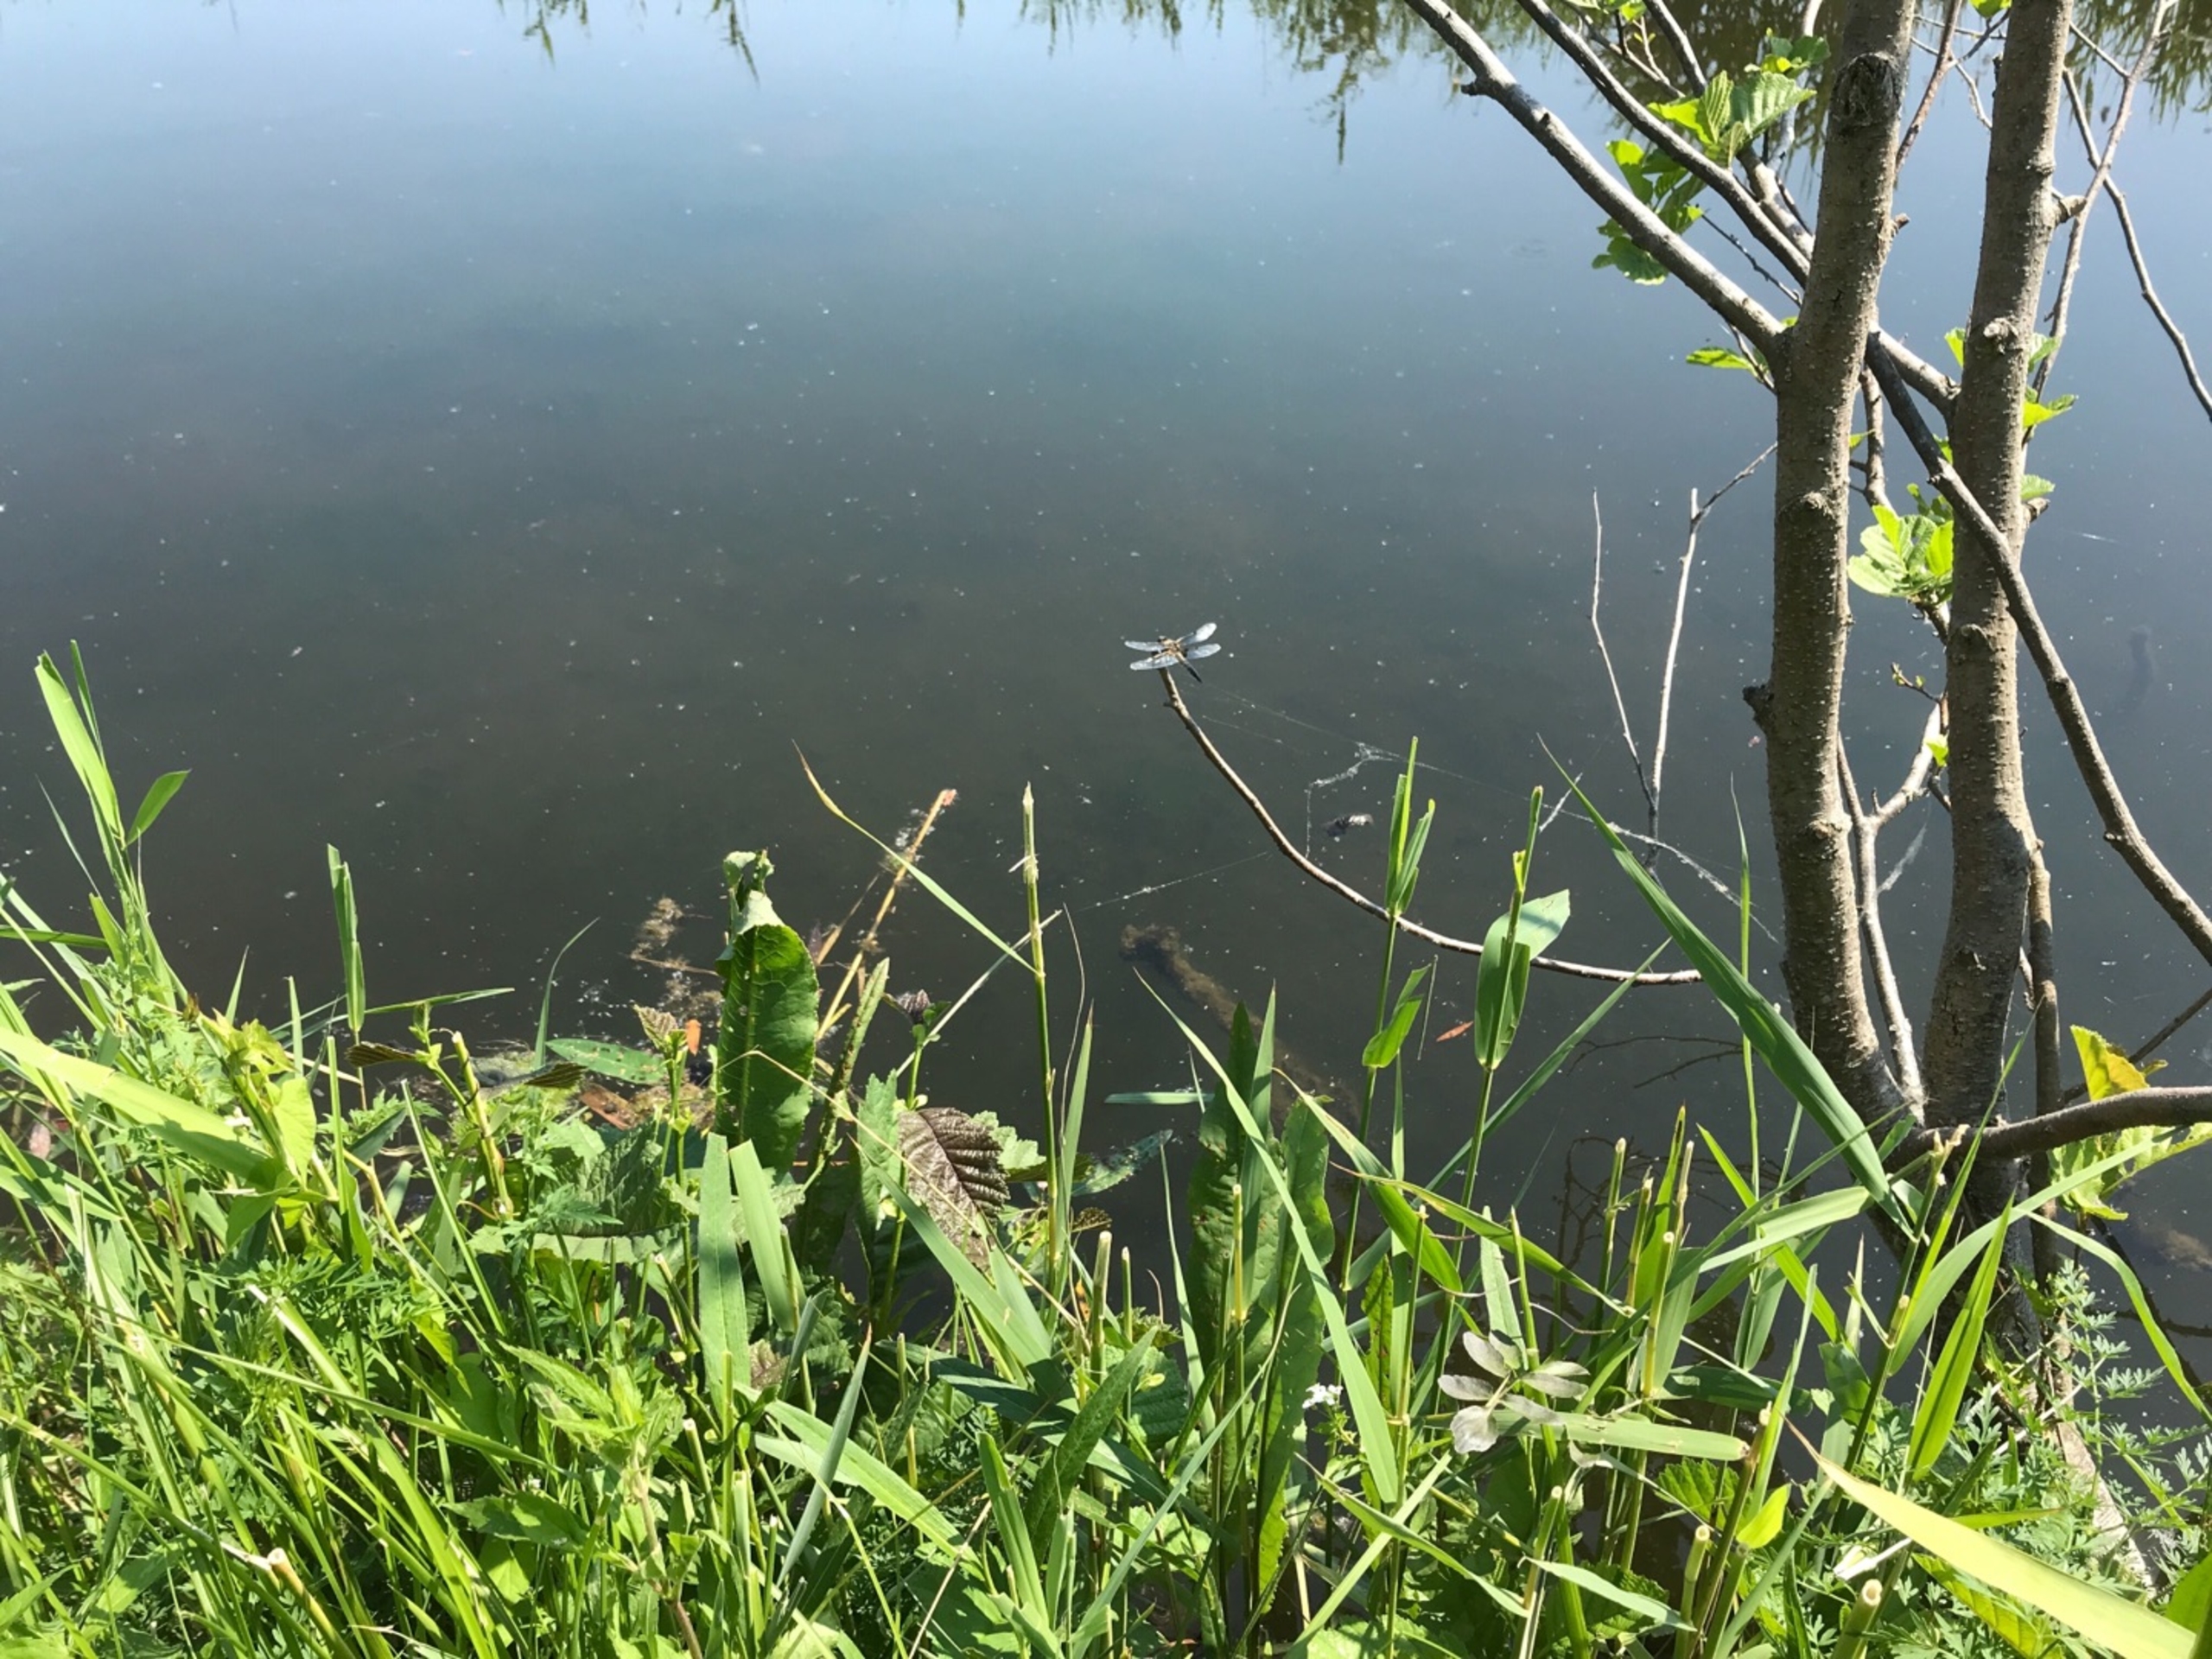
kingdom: Animalia
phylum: Arthropoda
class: Insecta
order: Odonata
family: Libellulidae
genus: Libellula
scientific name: Libellula quadrimaculata
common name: Fireplettet libel
